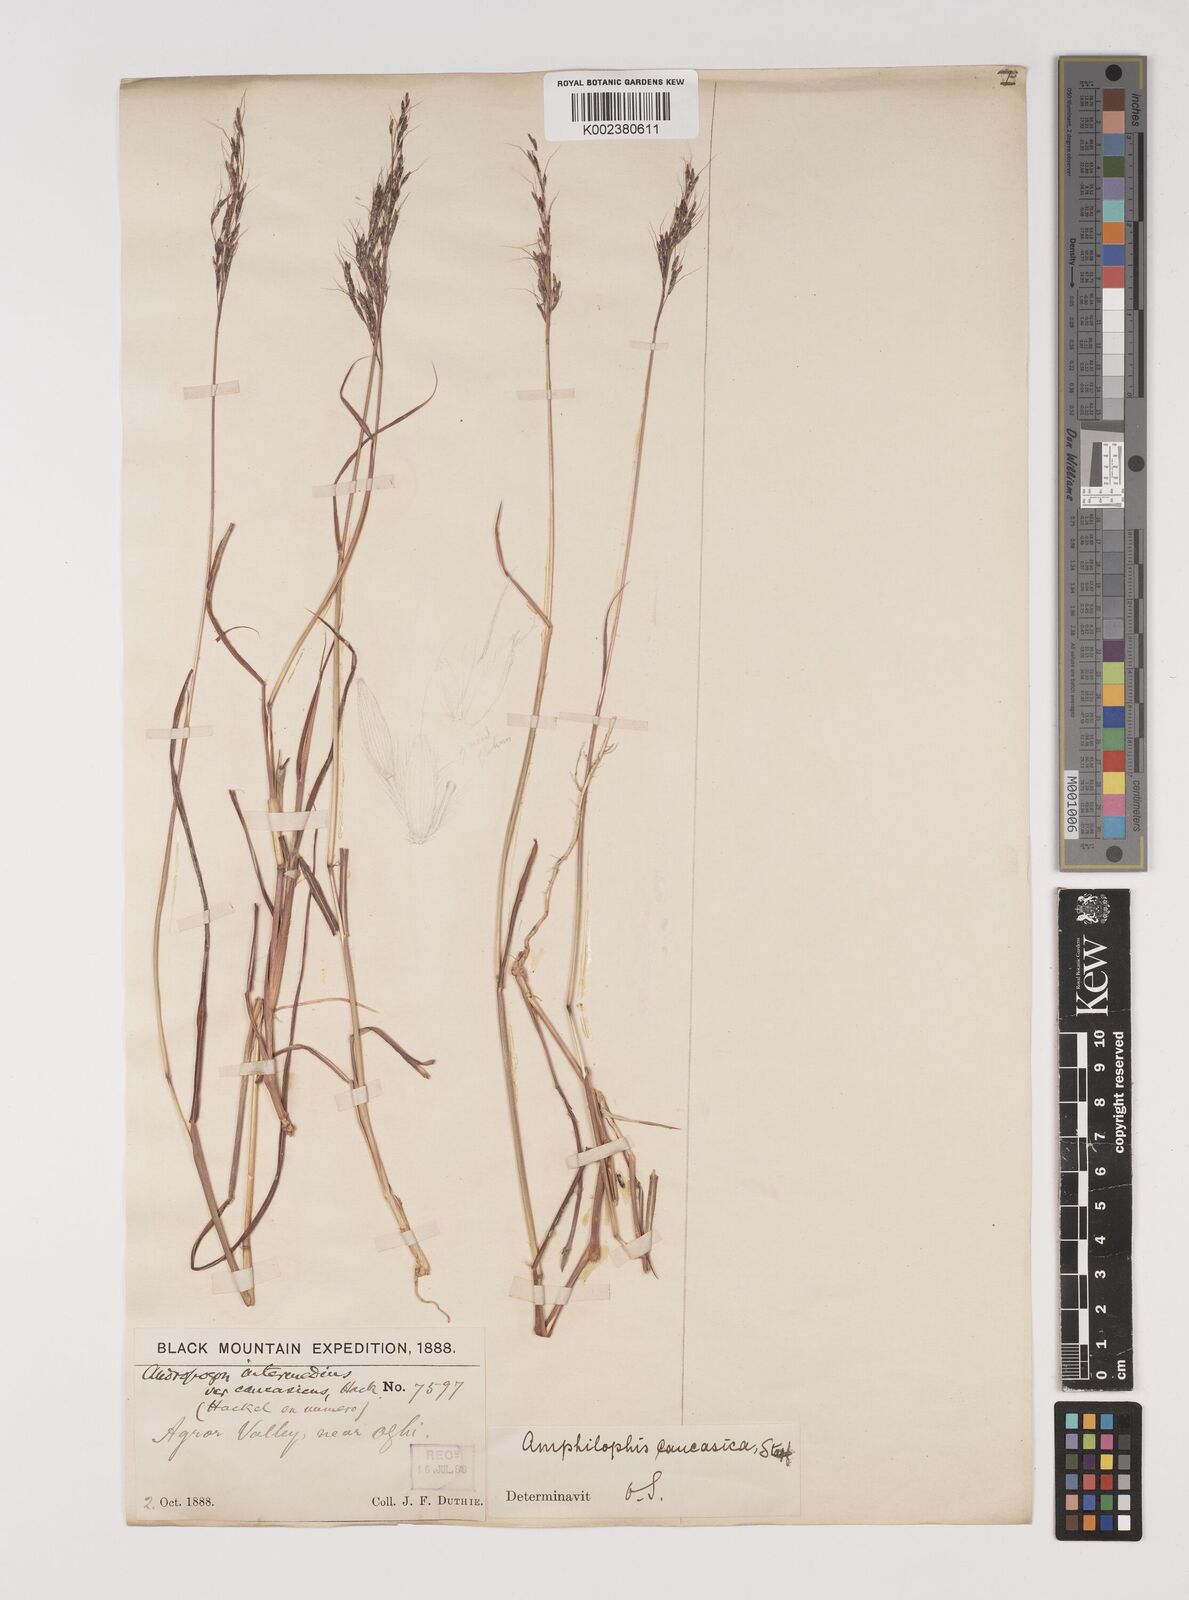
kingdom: Plantae
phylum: Tracheophyta
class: Liliopsida
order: Poales
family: Poaceae
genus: Bothriochloa
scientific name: Bothriochloa bladhii
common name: Caucasian bluestem
